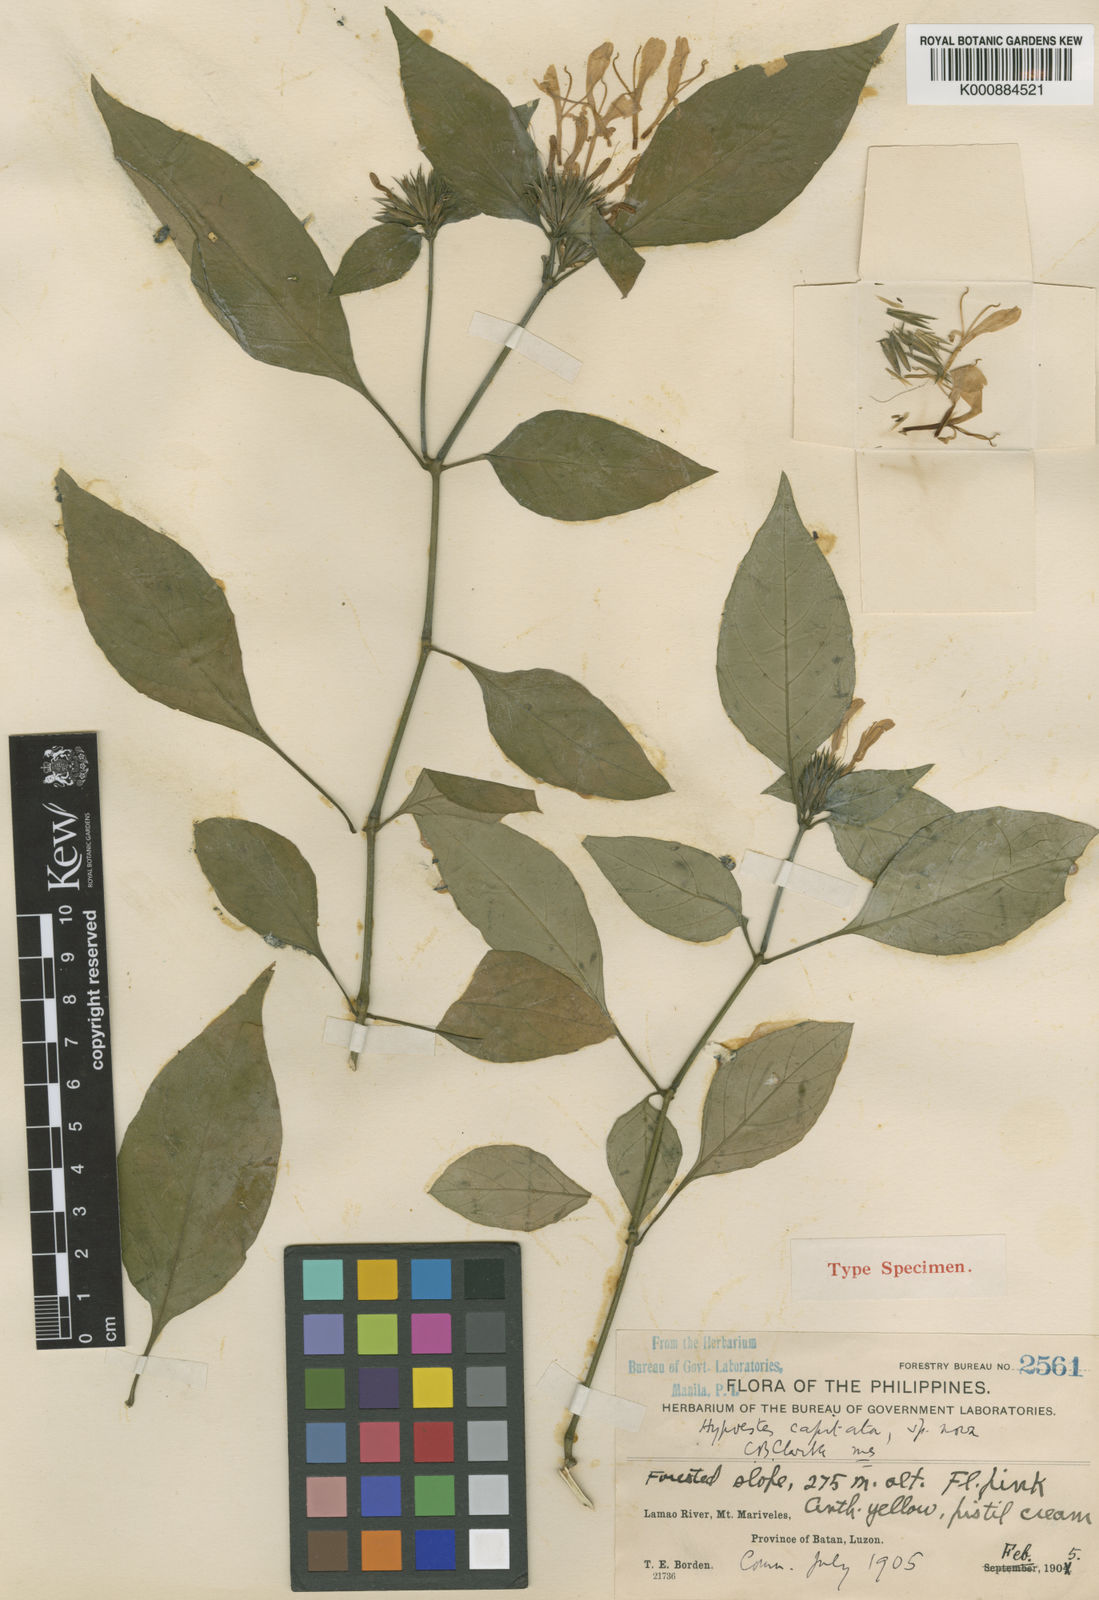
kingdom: Plantae
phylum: Tracheophyta
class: Magnoliopsida
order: Lamiales
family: Acanthaceae
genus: Hypoestes
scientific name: Hypoestes subcapitata
